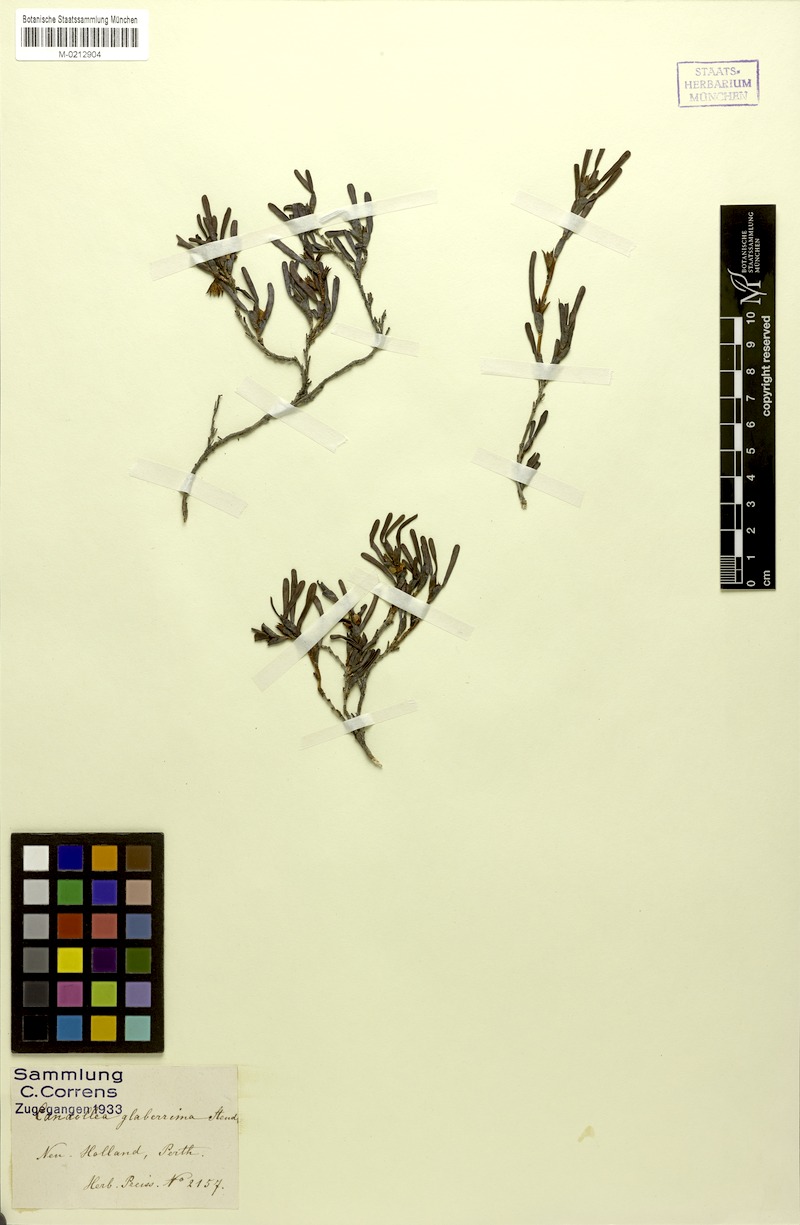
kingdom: Plantae
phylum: Tracheophyta
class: Magnoliopsida
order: Dilleniales
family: Dilleniaceae
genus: Hibbertia
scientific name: Hibbertia glaberrima
